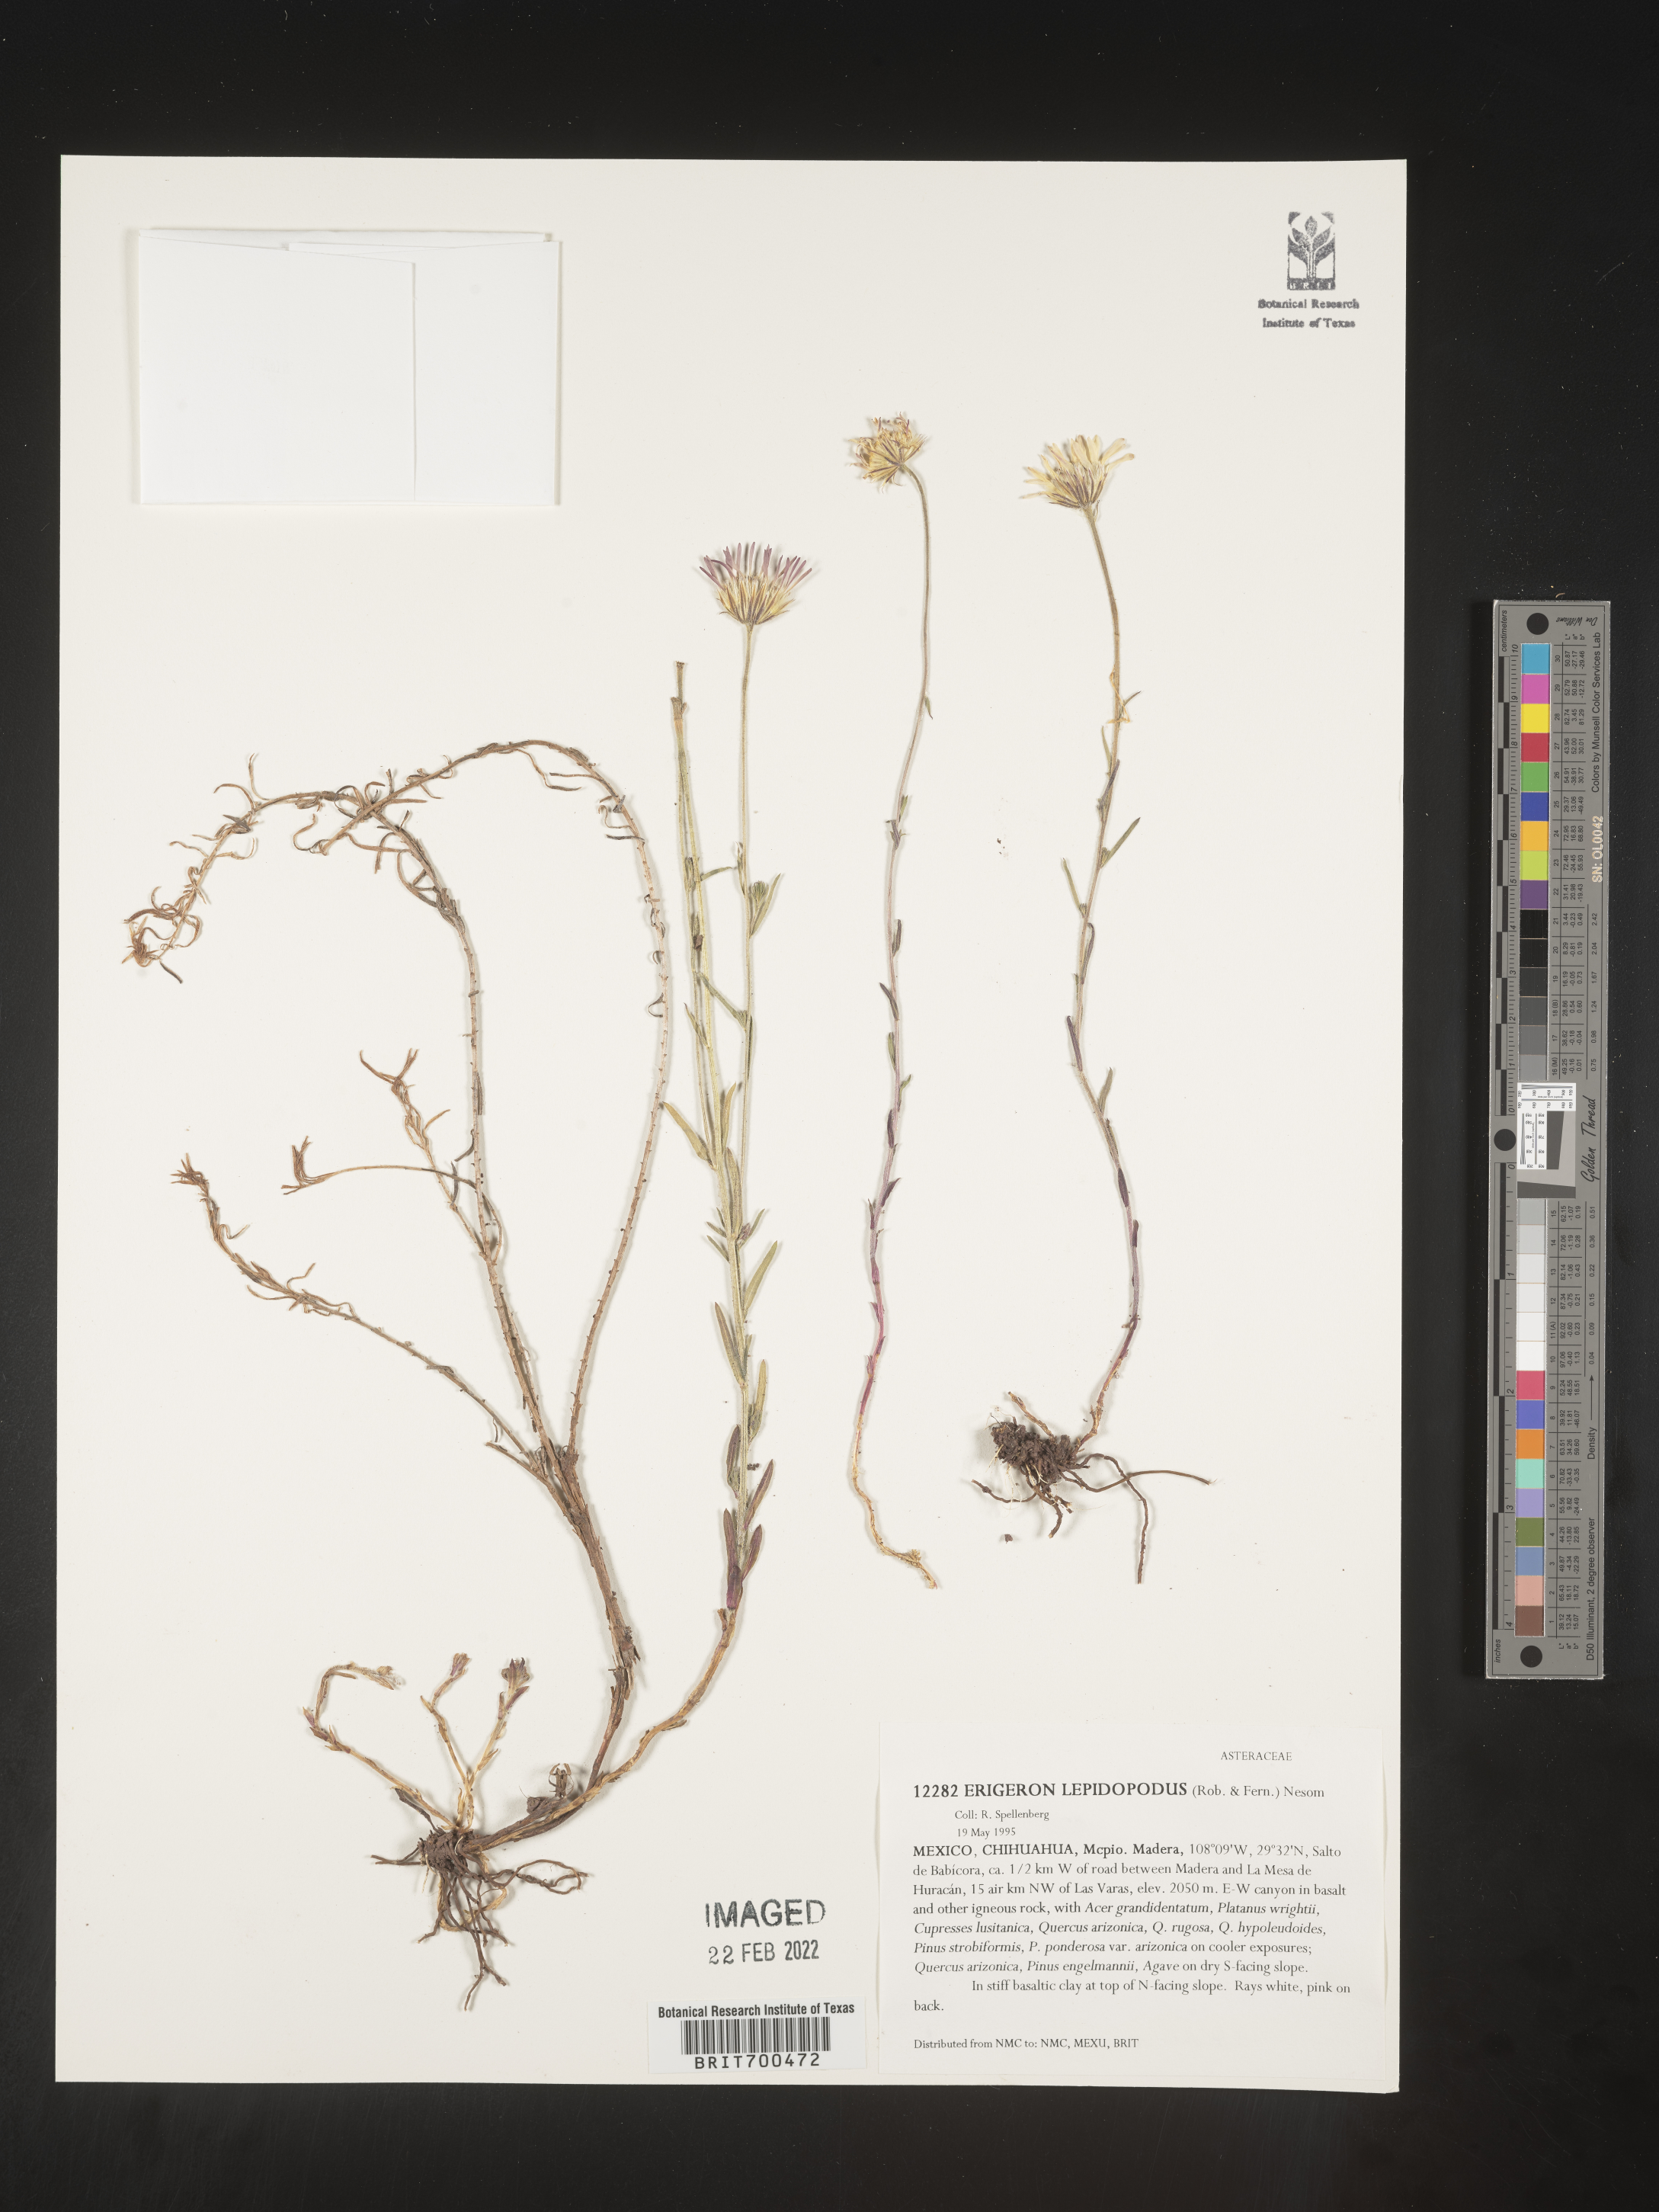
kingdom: Plantae
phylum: Tracheophyta
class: Magnoliopsida
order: Asterales
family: Asteraceae
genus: Erigeron
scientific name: Erigeron
